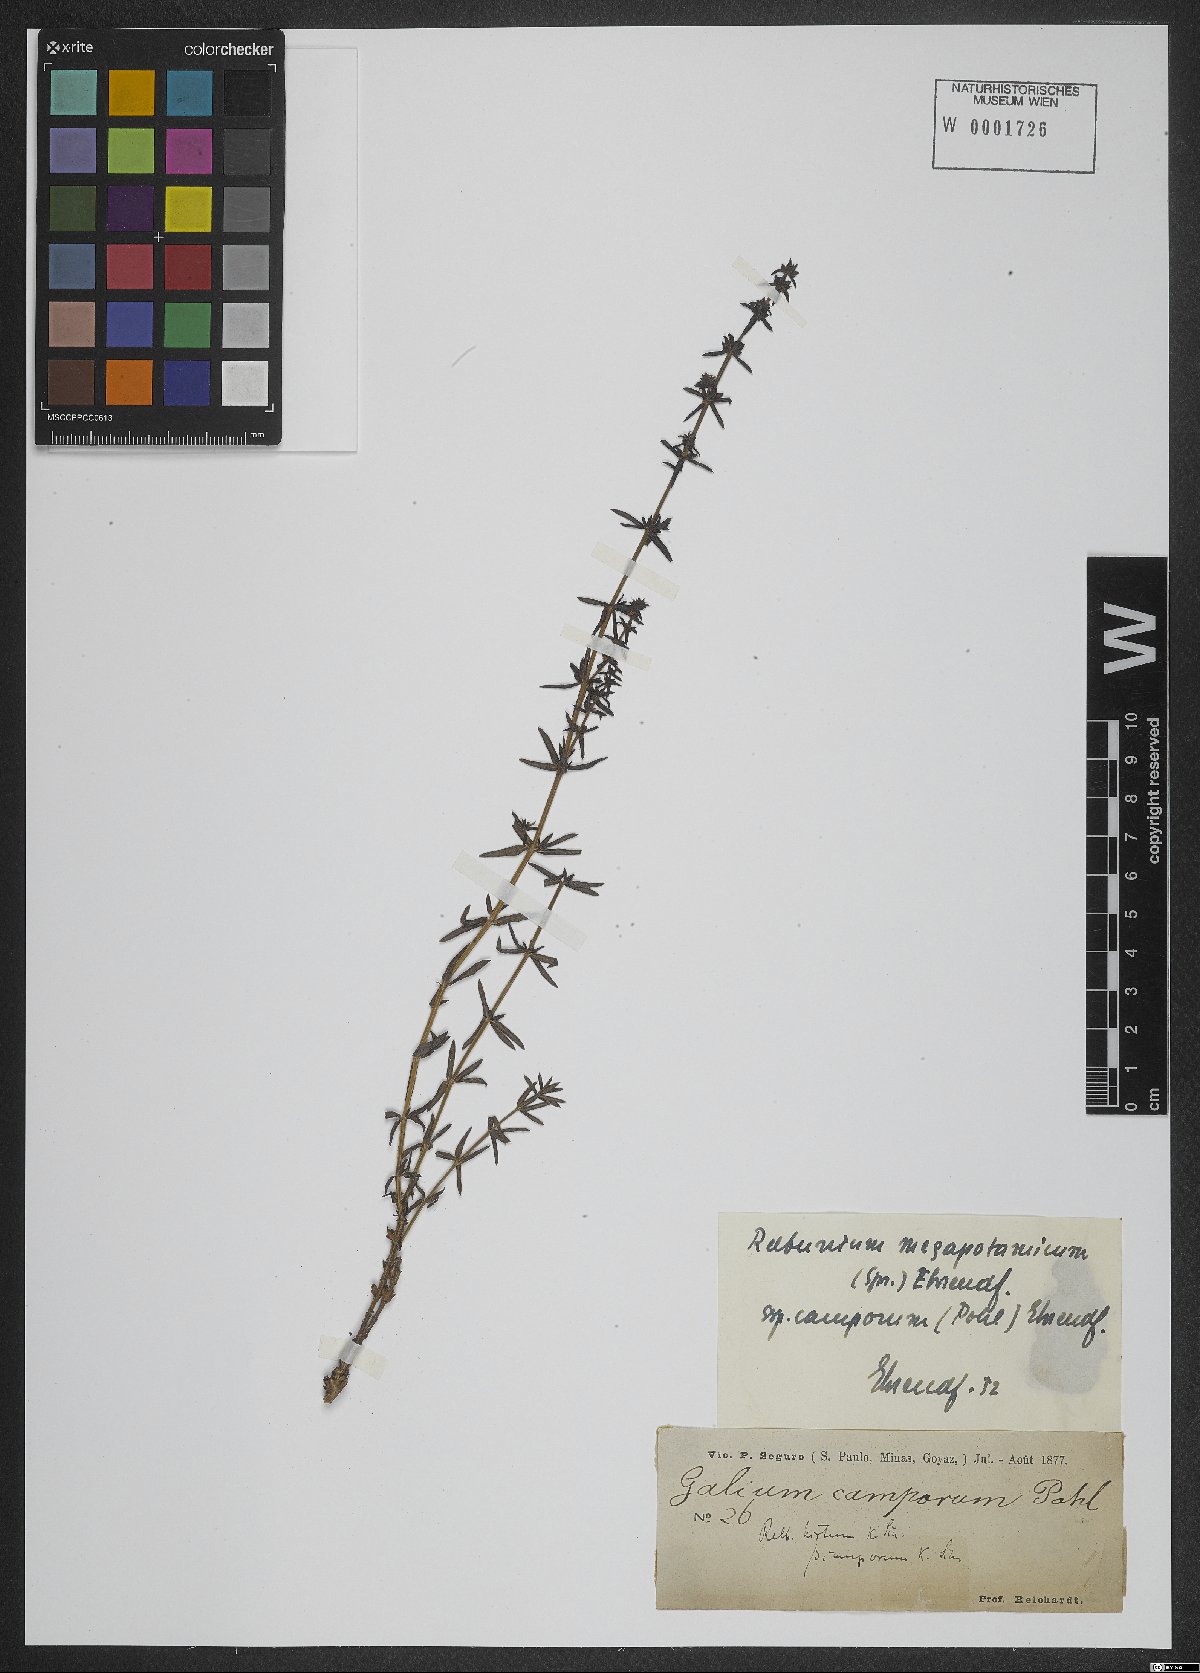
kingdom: Plantae
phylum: Tracheophyta
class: Magnoliopsida
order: Gentianales
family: Rubiaceae
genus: Galium
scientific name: Galium megapotamicum
